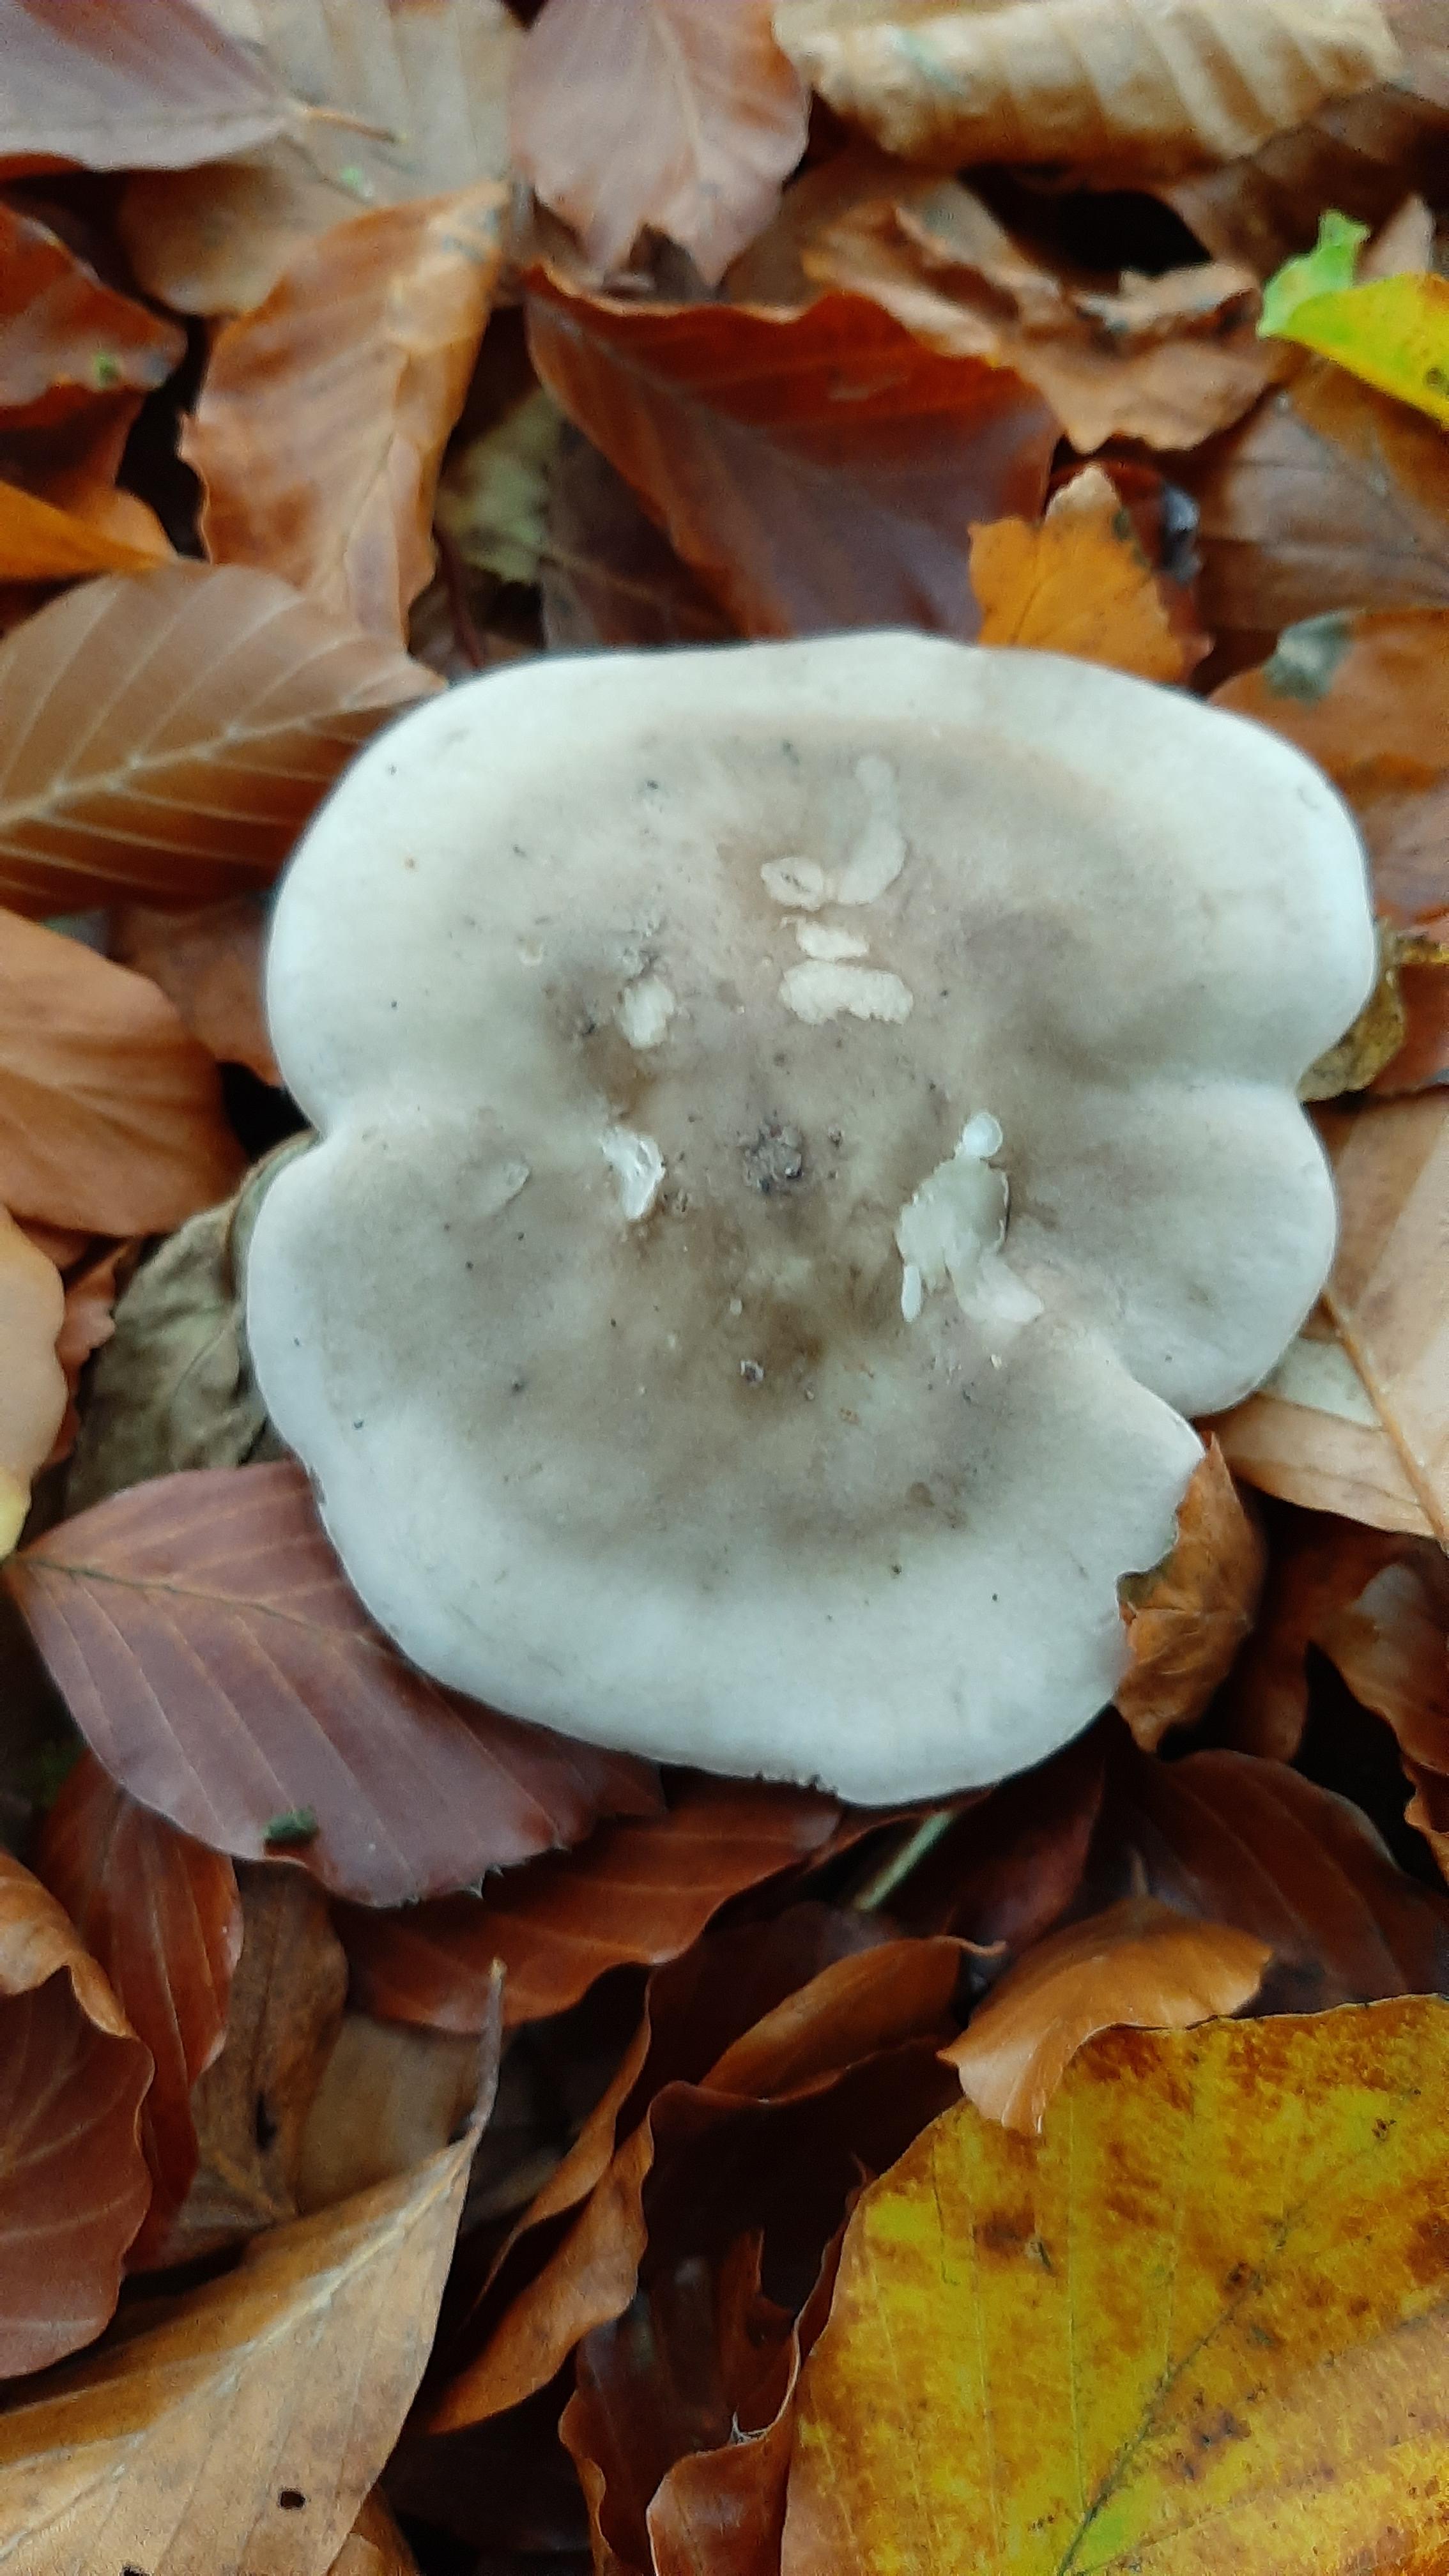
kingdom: Fungi
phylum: Basidiomycota
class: Agaricomycetes
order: Agaricales
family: Tricholomataceae
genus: Clitocybe
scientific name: Clitocybe nebularis
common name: tåge-tragthat
